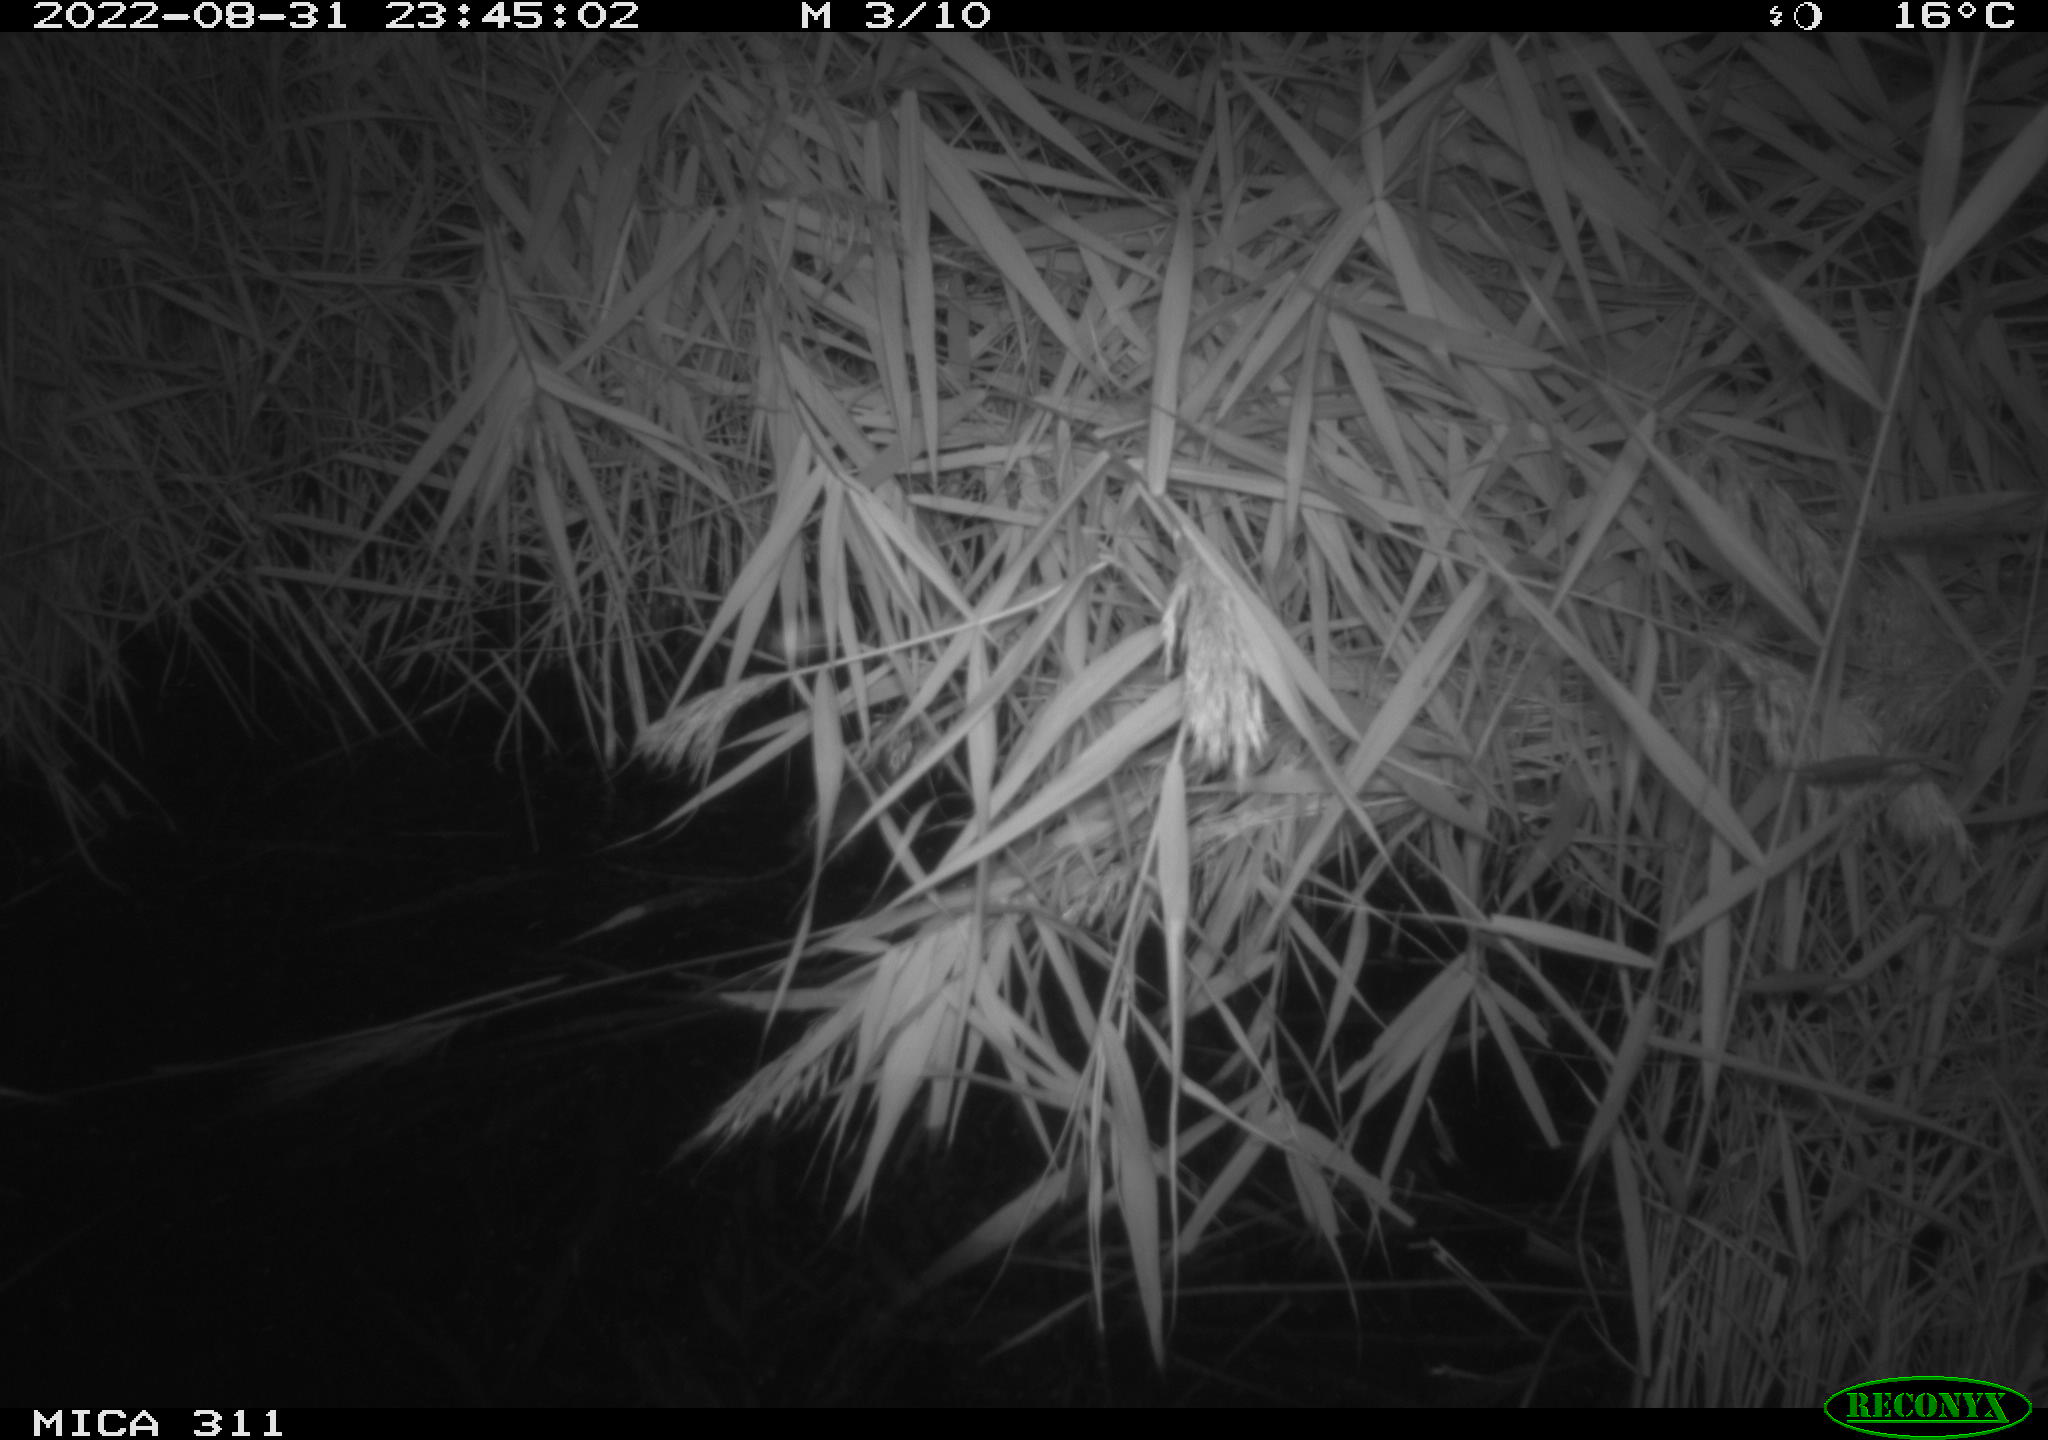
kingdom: Animalia
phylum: Chordata
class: Mammalia
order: Rodentia
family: Muridae
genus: Rattus
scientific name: Rattus norvegicus
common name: Brown rat
